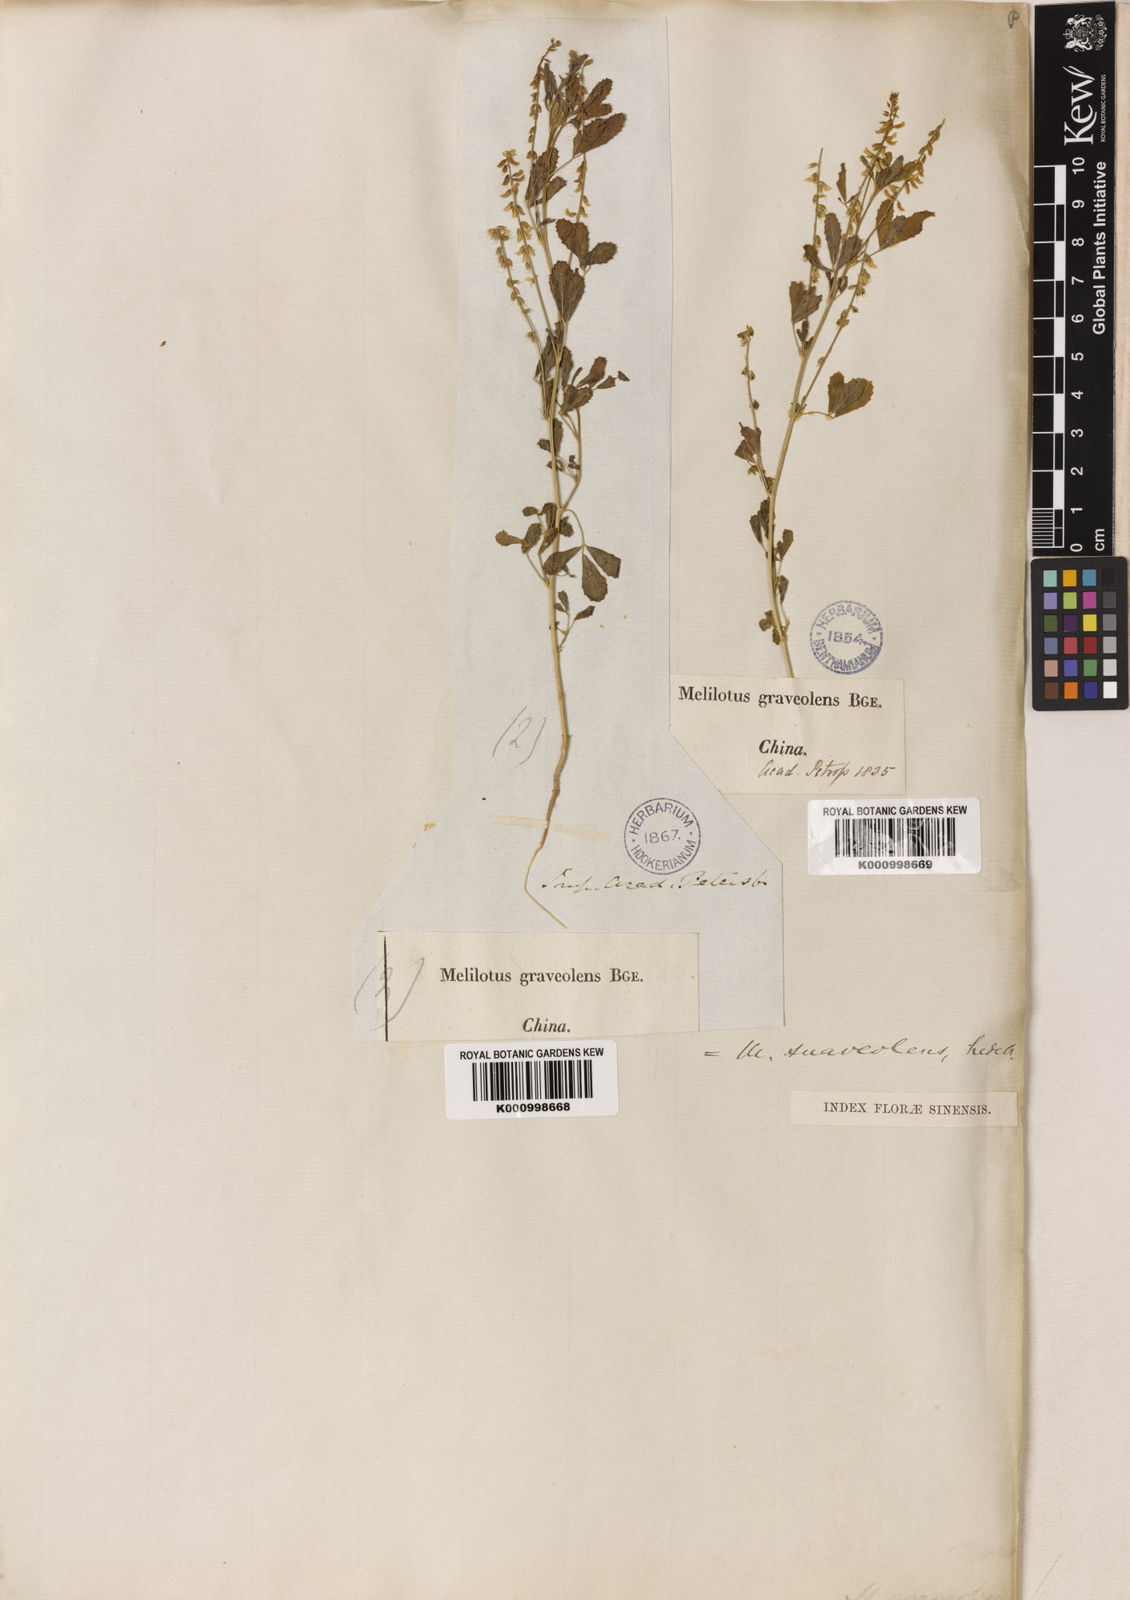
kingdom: Plantae
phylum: Tracheophyta
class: Magnoliopsida
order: Fabales
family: Fabaceae
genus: Melilotus
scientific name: Melilotus suaveolens
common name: Daghestan sweet-clover
